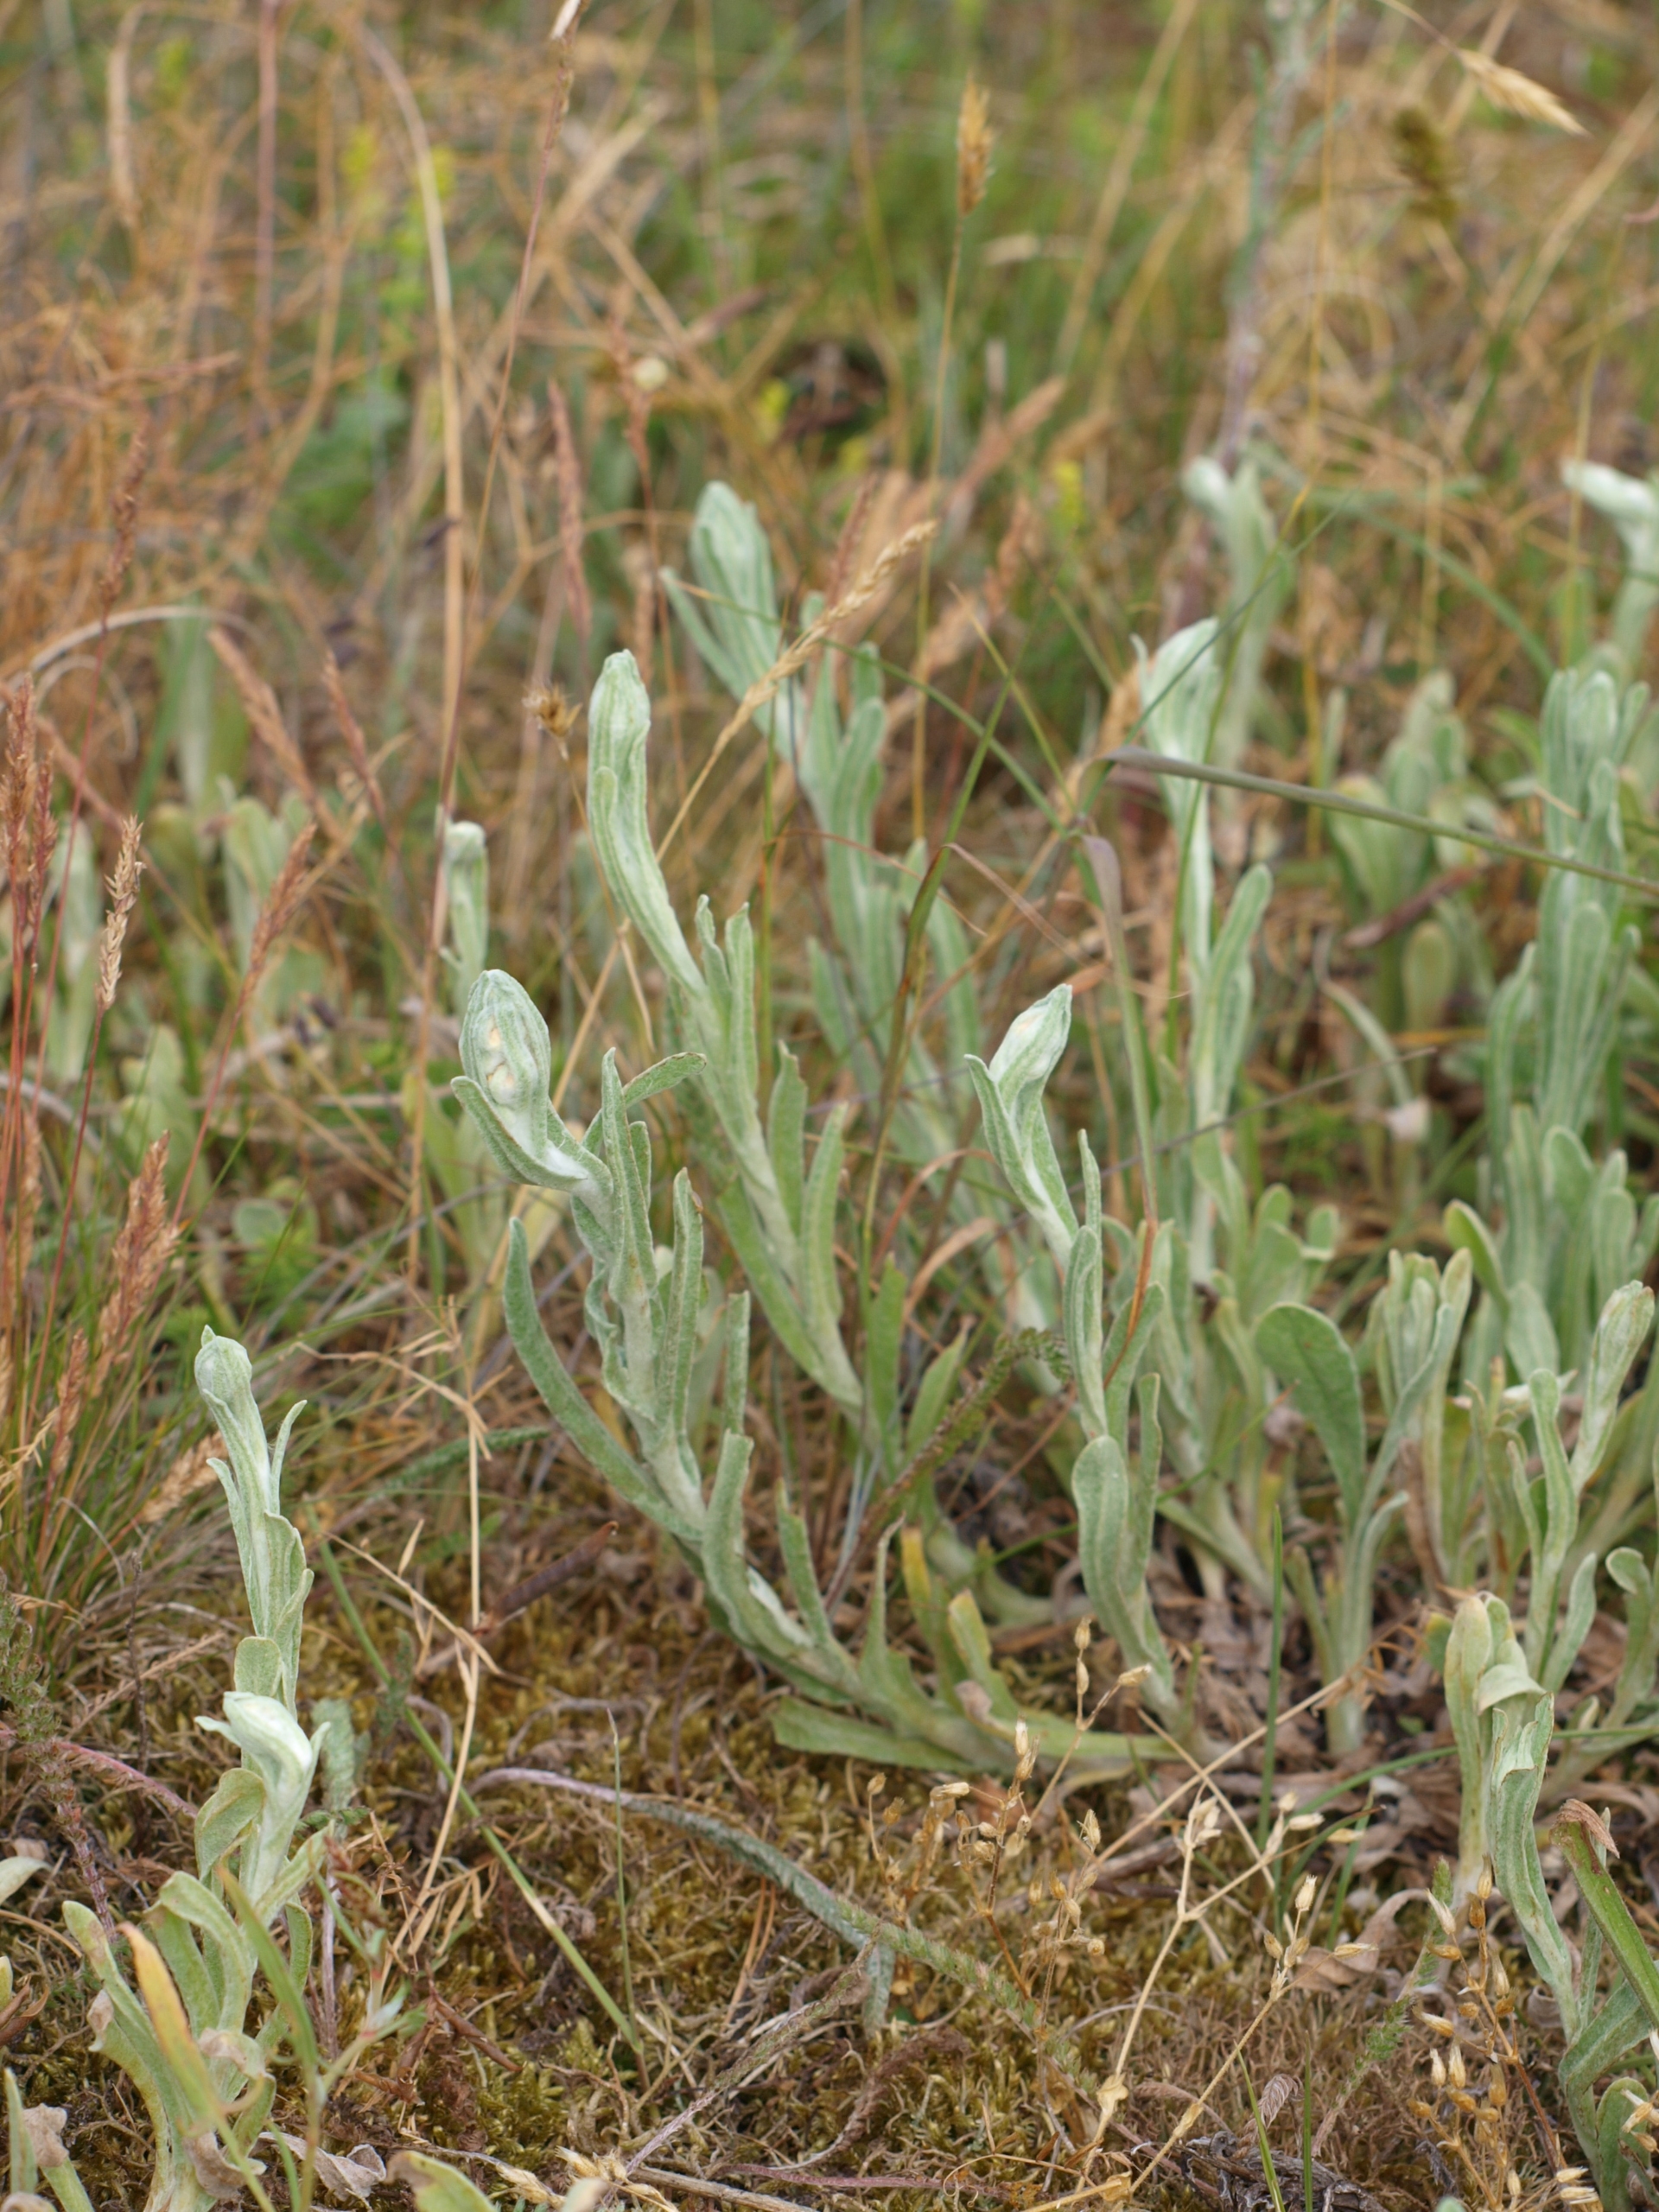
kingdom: Plantae
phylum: Tracheophyta
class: Magnoliopsida
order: Asterales
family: Asteraceae
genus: Helichrysum
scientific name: Helichrysum arenarium
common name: Gul evighedsblomst
